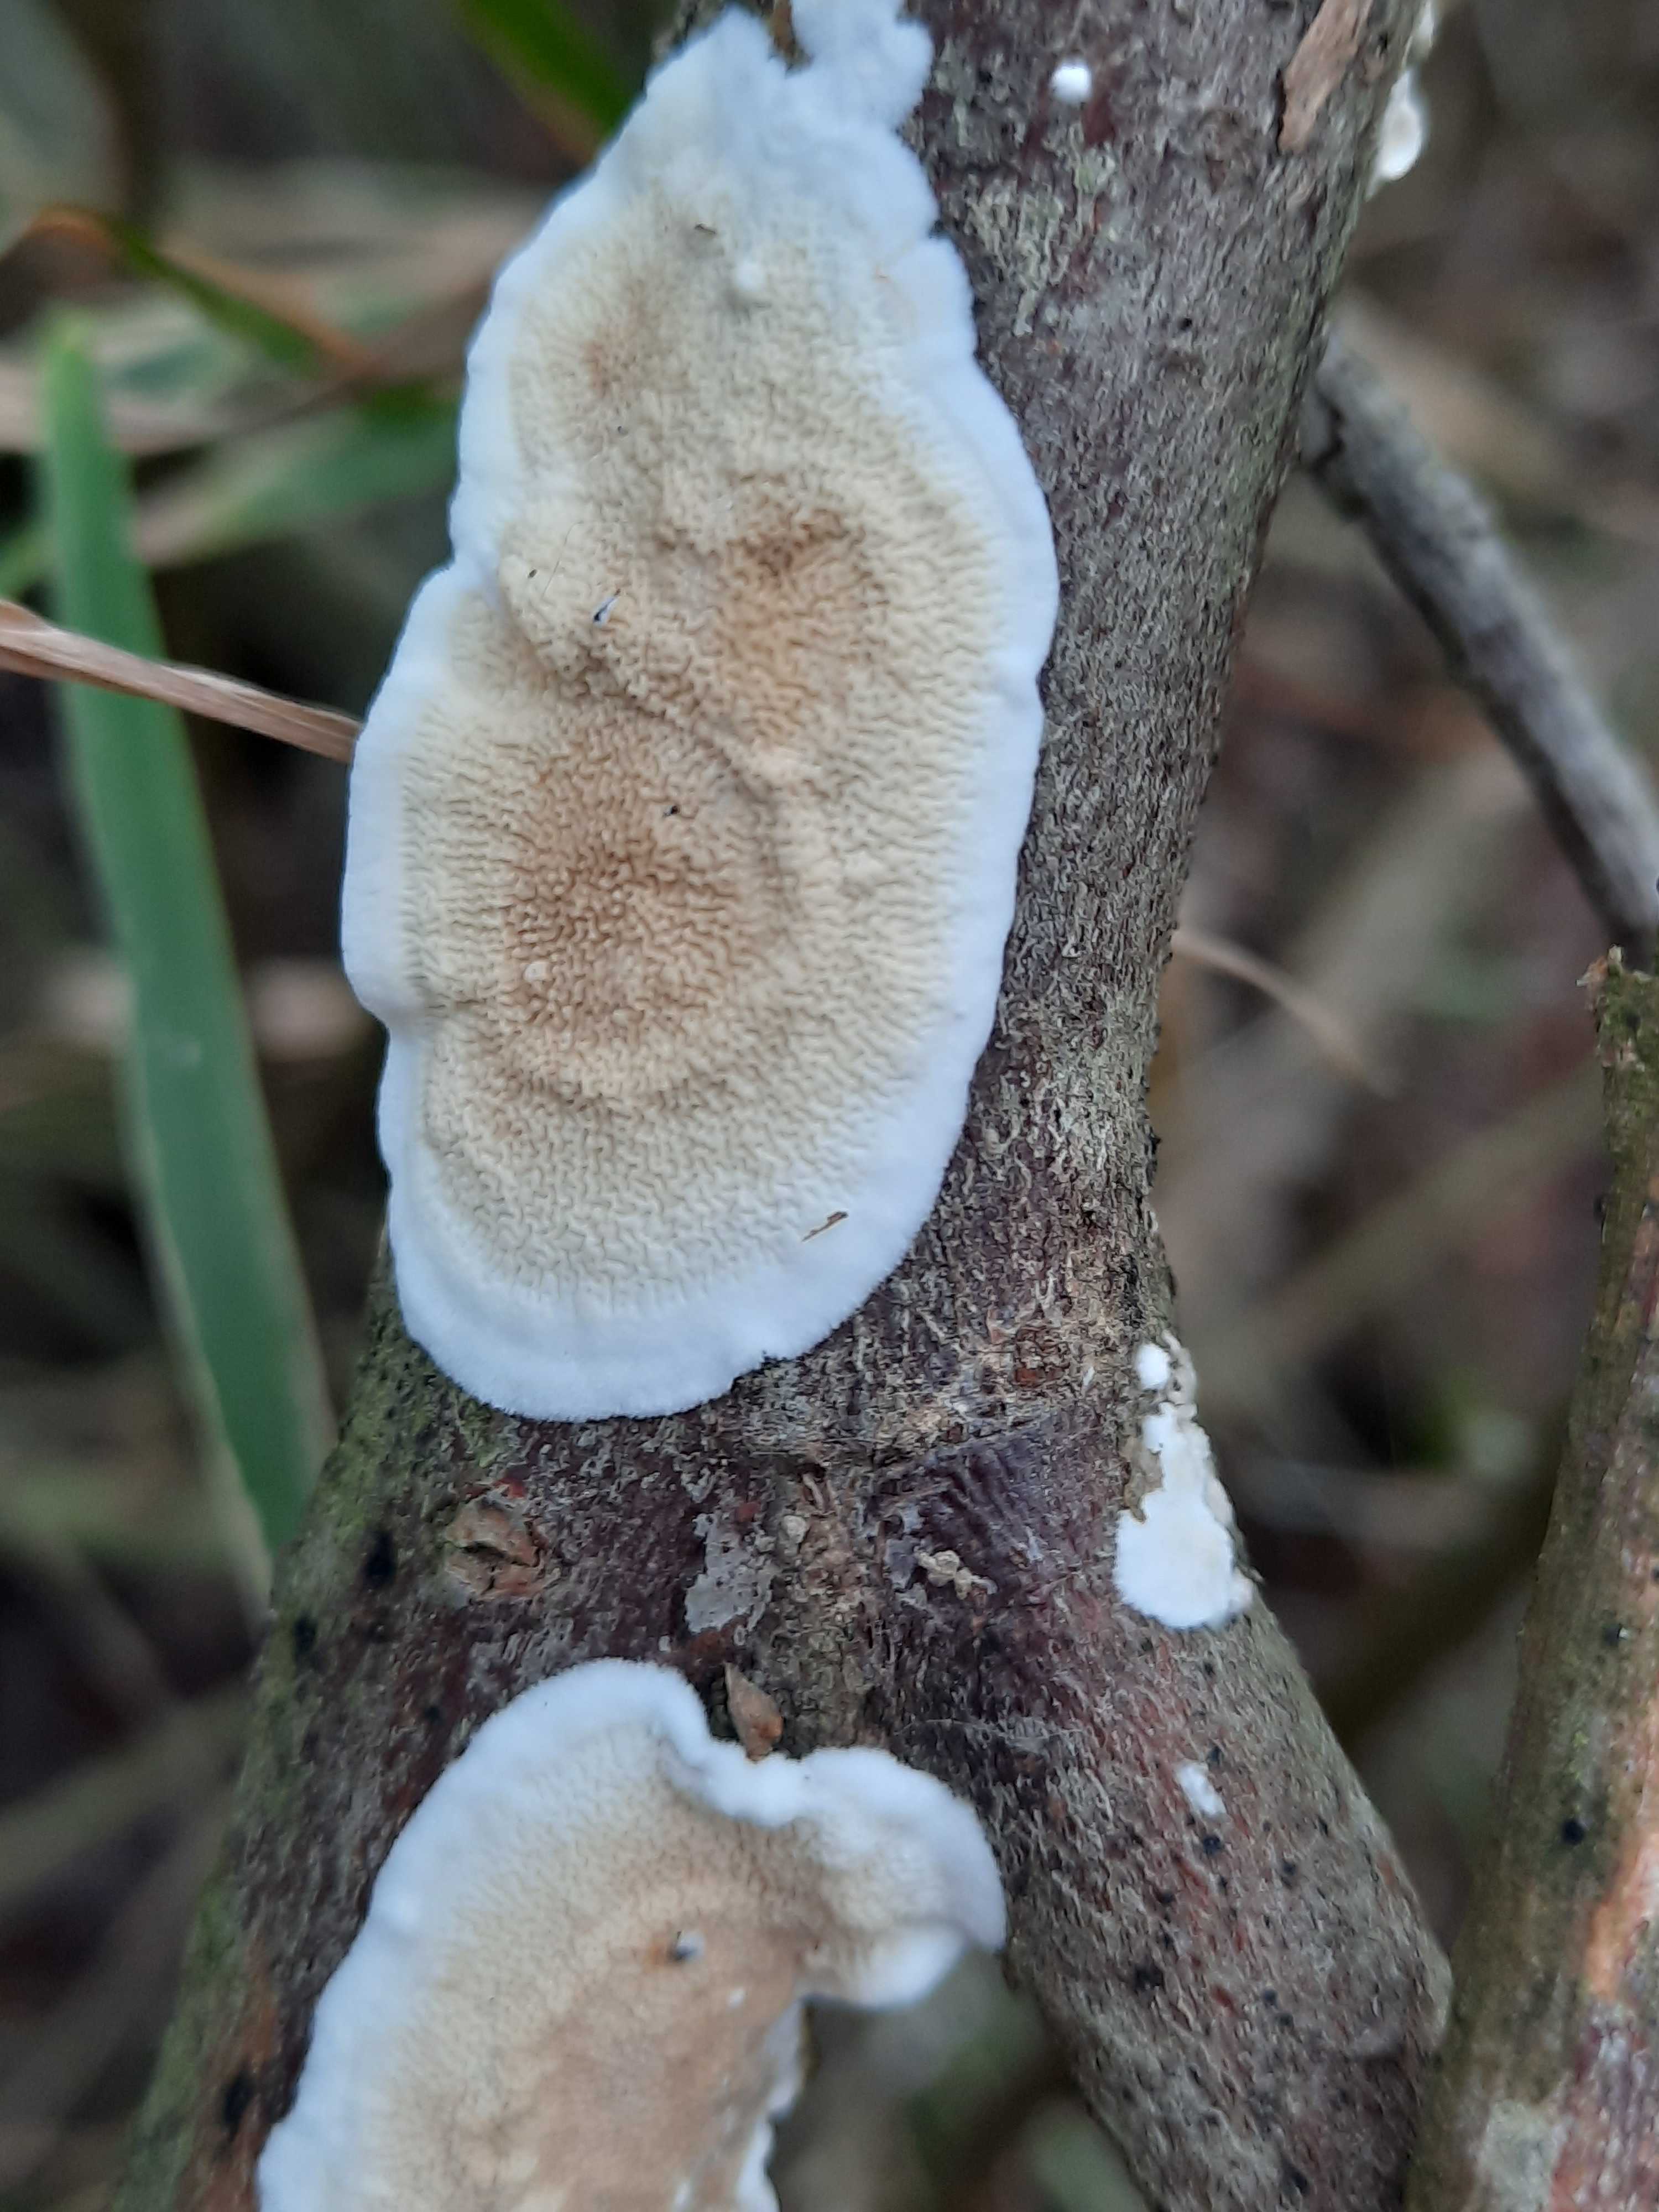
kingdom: Fungi
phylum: Basidiomycota
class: Agaricomycetes
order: Polyporales
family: Irpicaceae
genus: Byssomerulius
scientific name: Byssomerulius corium
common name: læder-åresvamp
